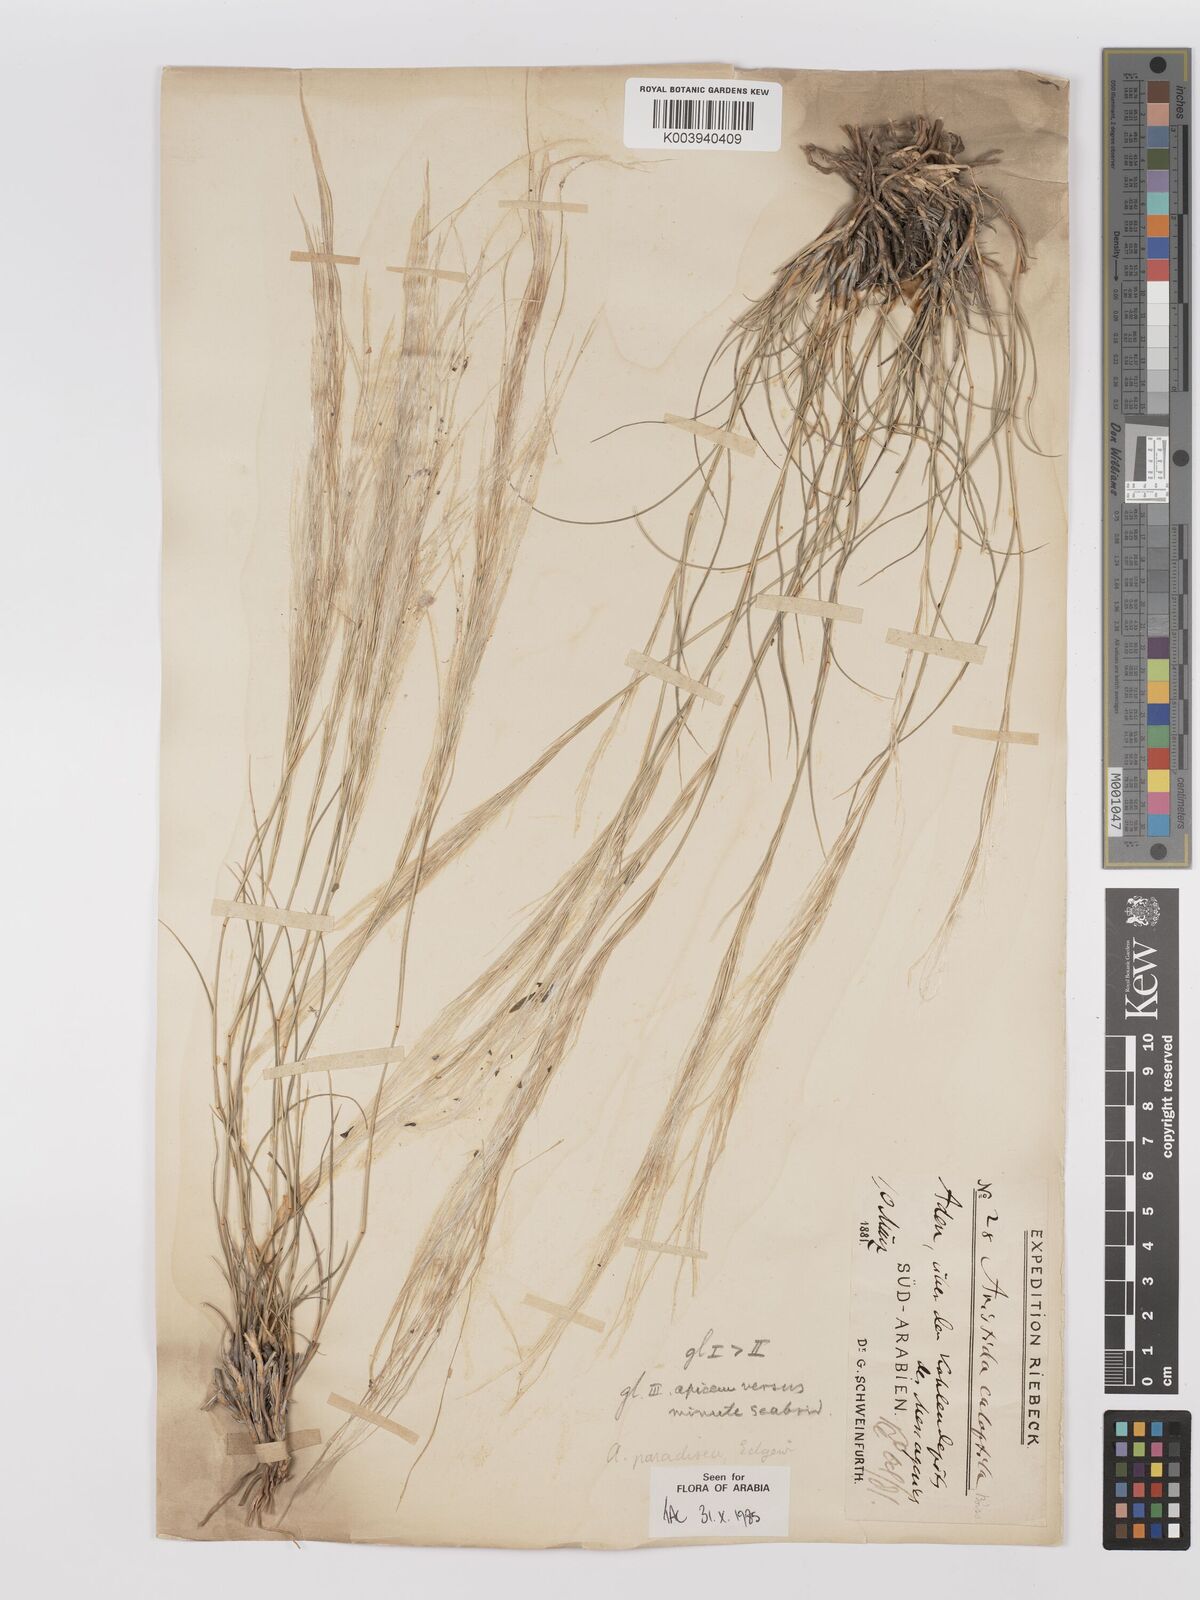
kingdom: Plantae
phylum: Tracheophyta
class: Liliopsida
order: Poales
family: Poaceae
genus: Stipagrostis
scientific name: Stipagrostis paradisea
